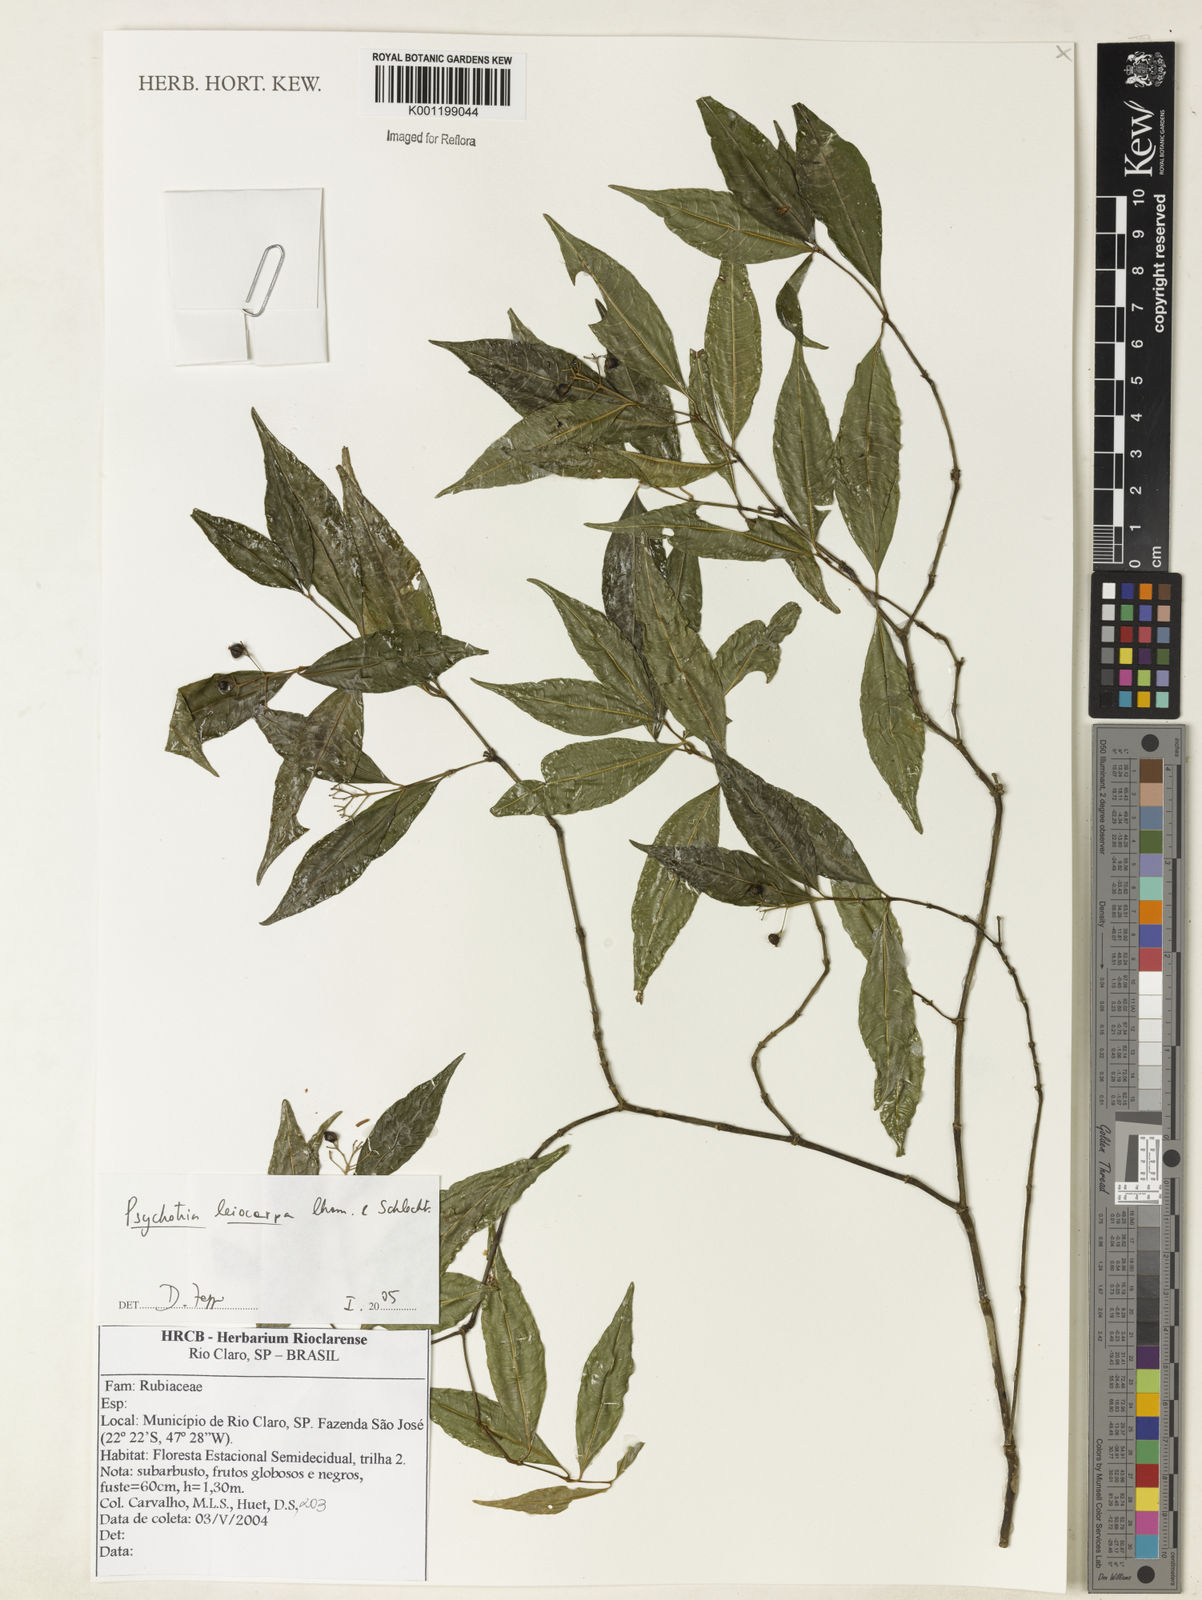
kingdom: Plantae
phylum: Tracheophyta
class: Magnoliopsida
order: Gentianales
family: Rubiaceae
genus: Psychotria
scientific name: Psychotria leiocarpa
